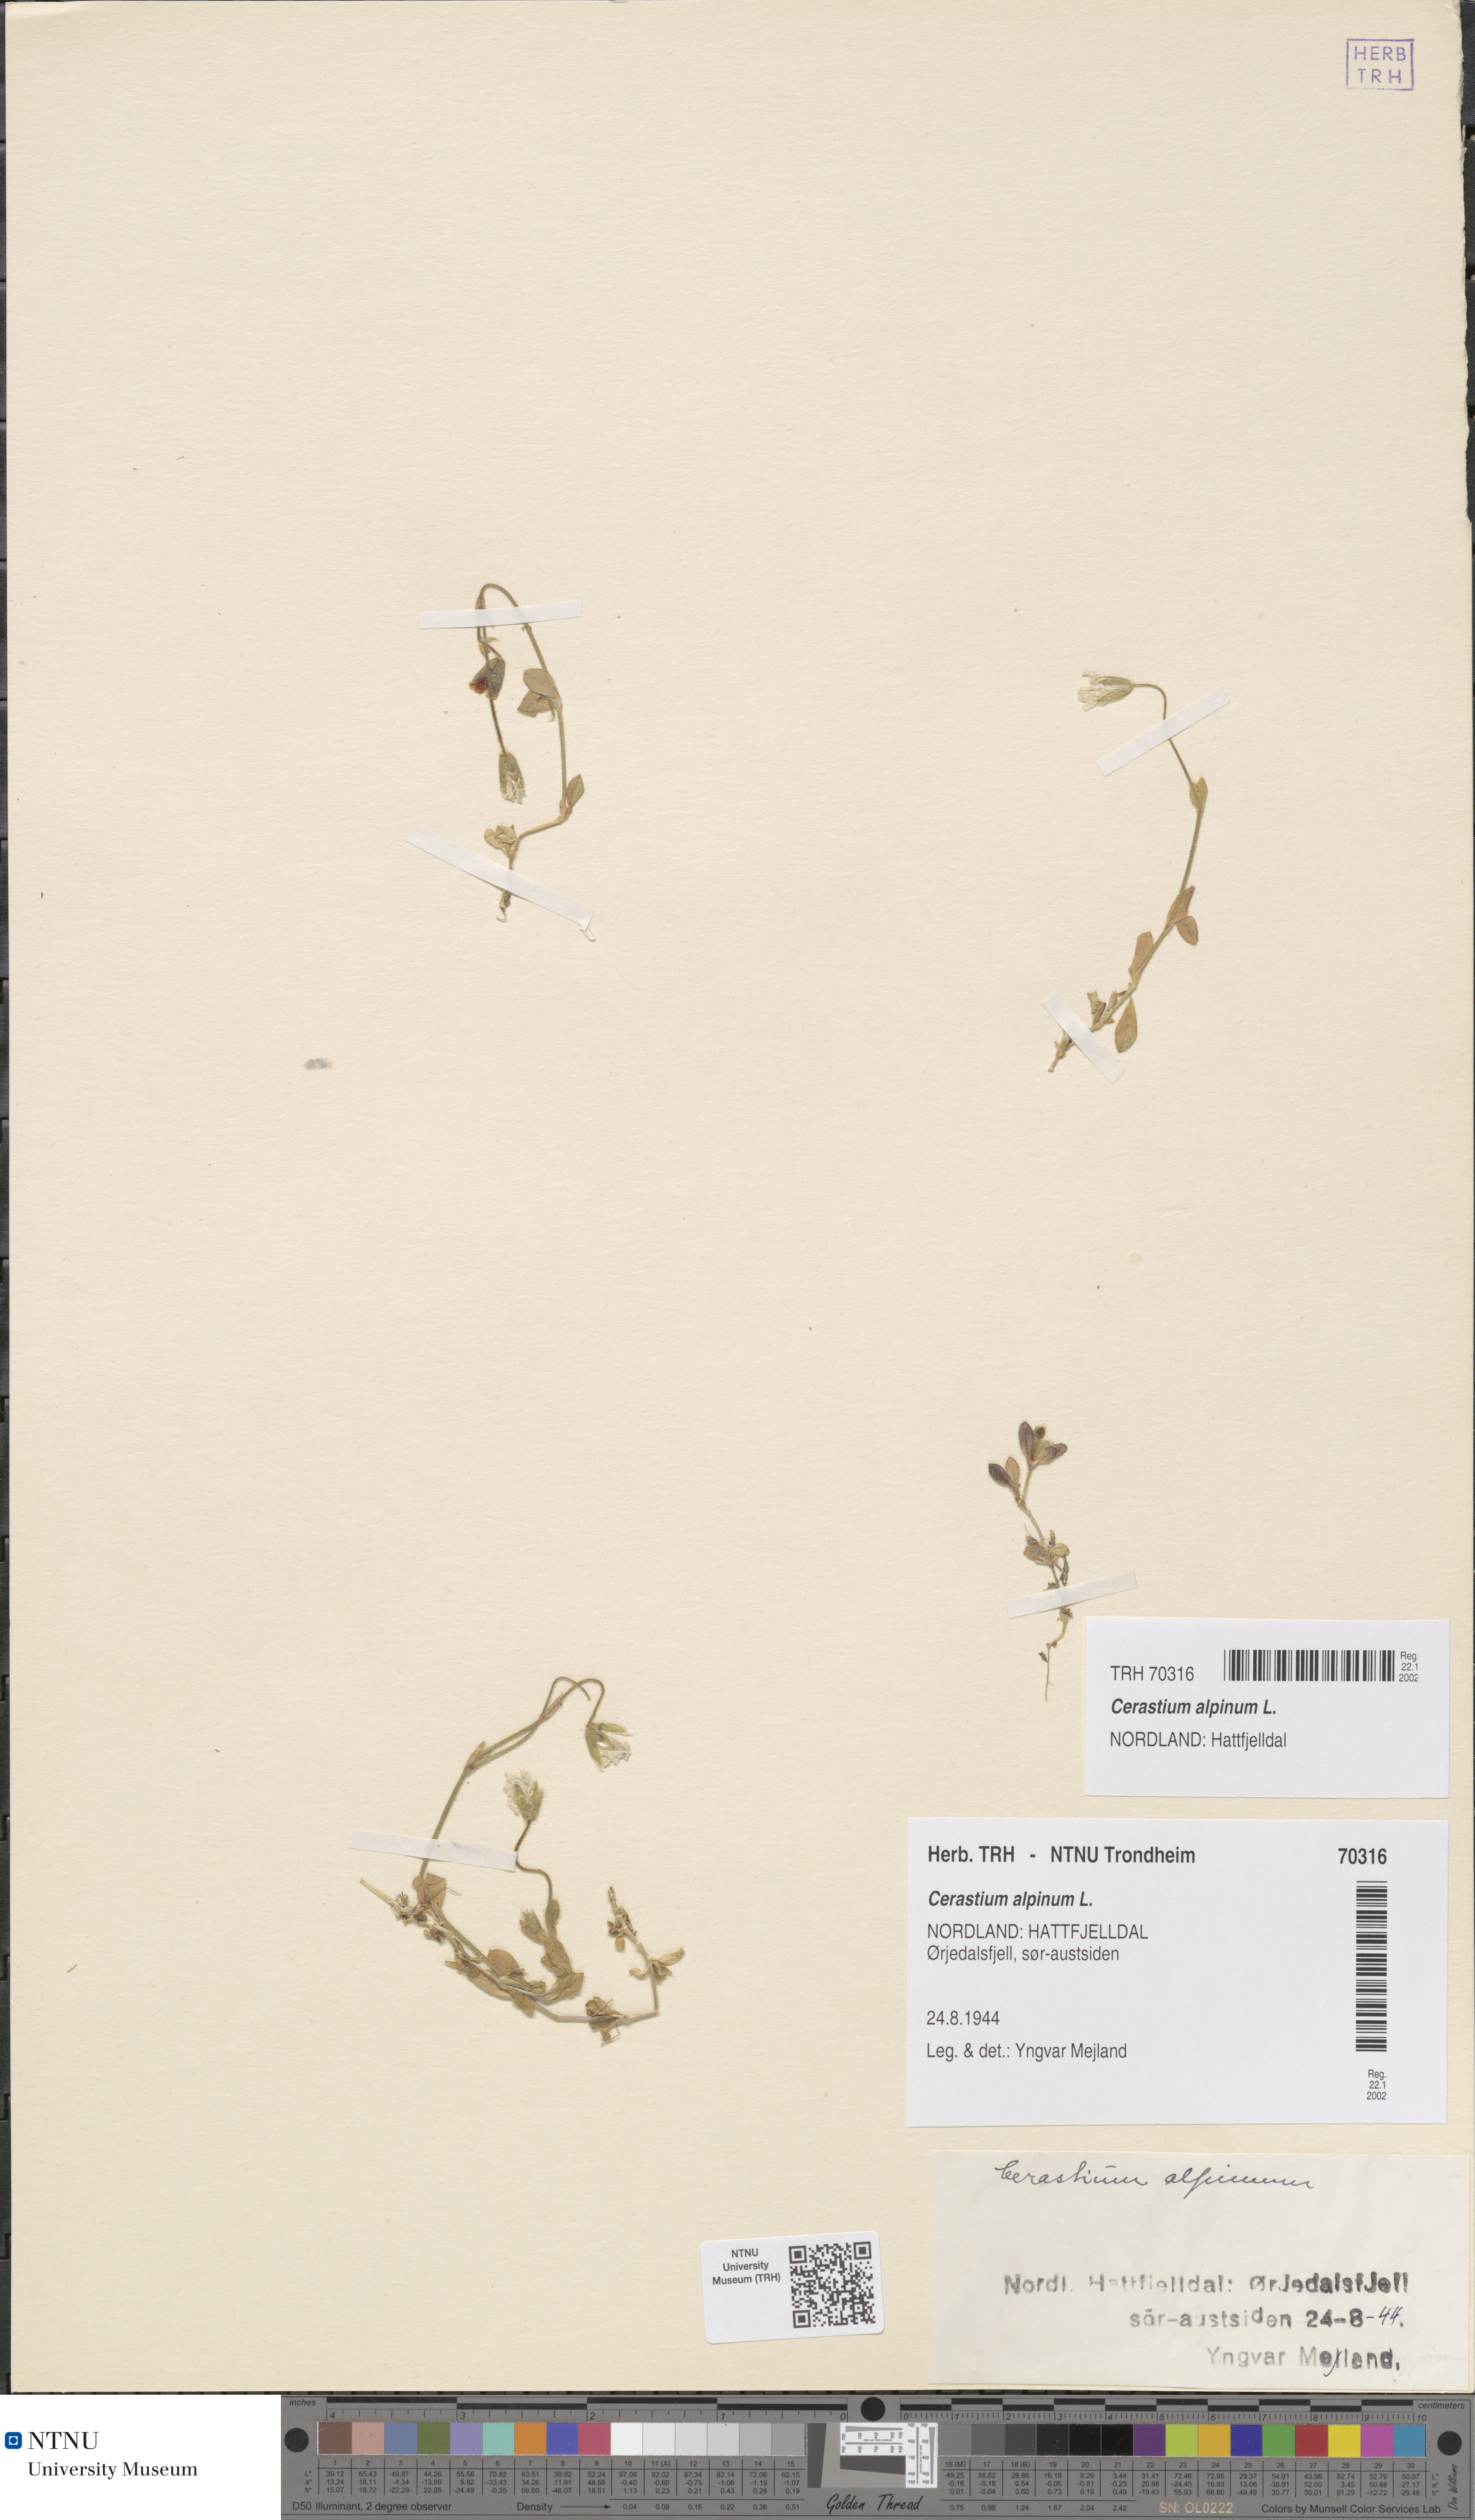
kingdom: Plantae
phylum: Tracheophyta
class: Magnoliopsida
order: Caryophyllales
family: Caryophyllaceae
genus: Cerastium
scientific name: Cerastium alpinum
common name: Alpine mouse-ear
